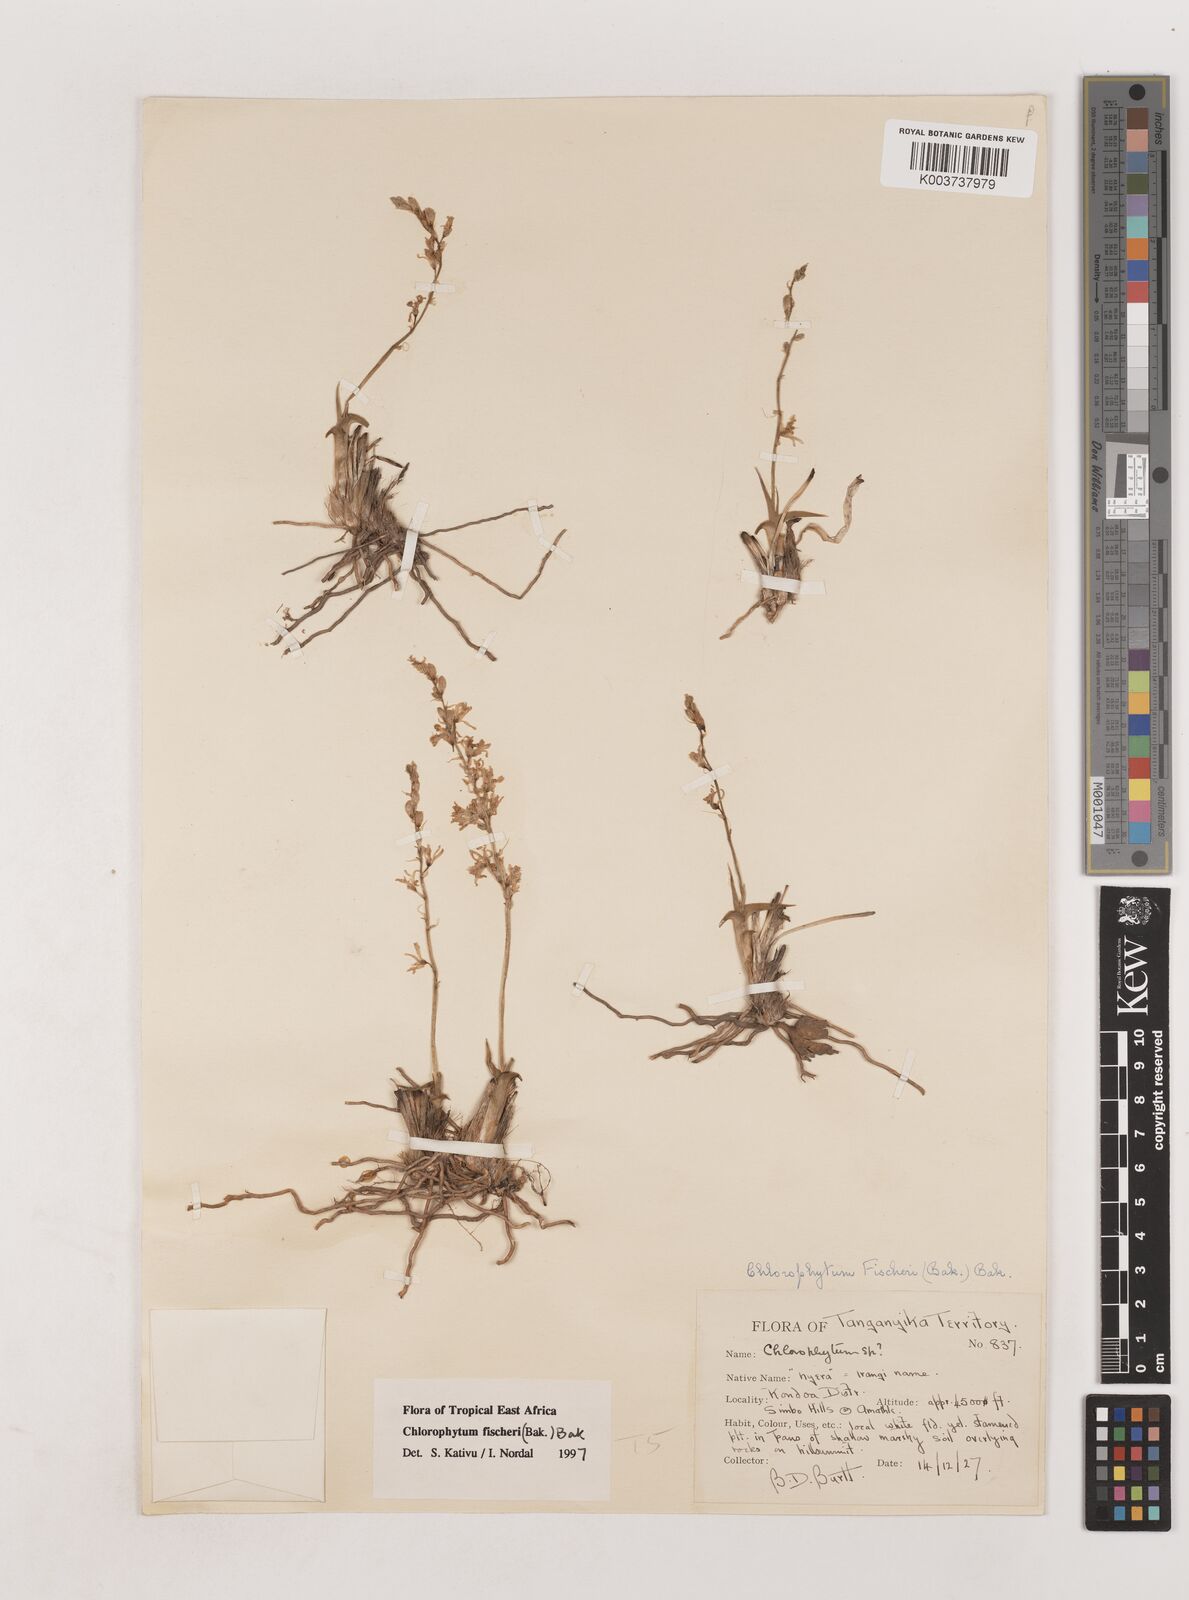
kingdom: Plantae
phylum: Tracheophyta
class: Liliopsida
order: Asparagales
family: Asparagaceae
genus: Chlorophytum
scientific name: Chlorophytum fischeri
